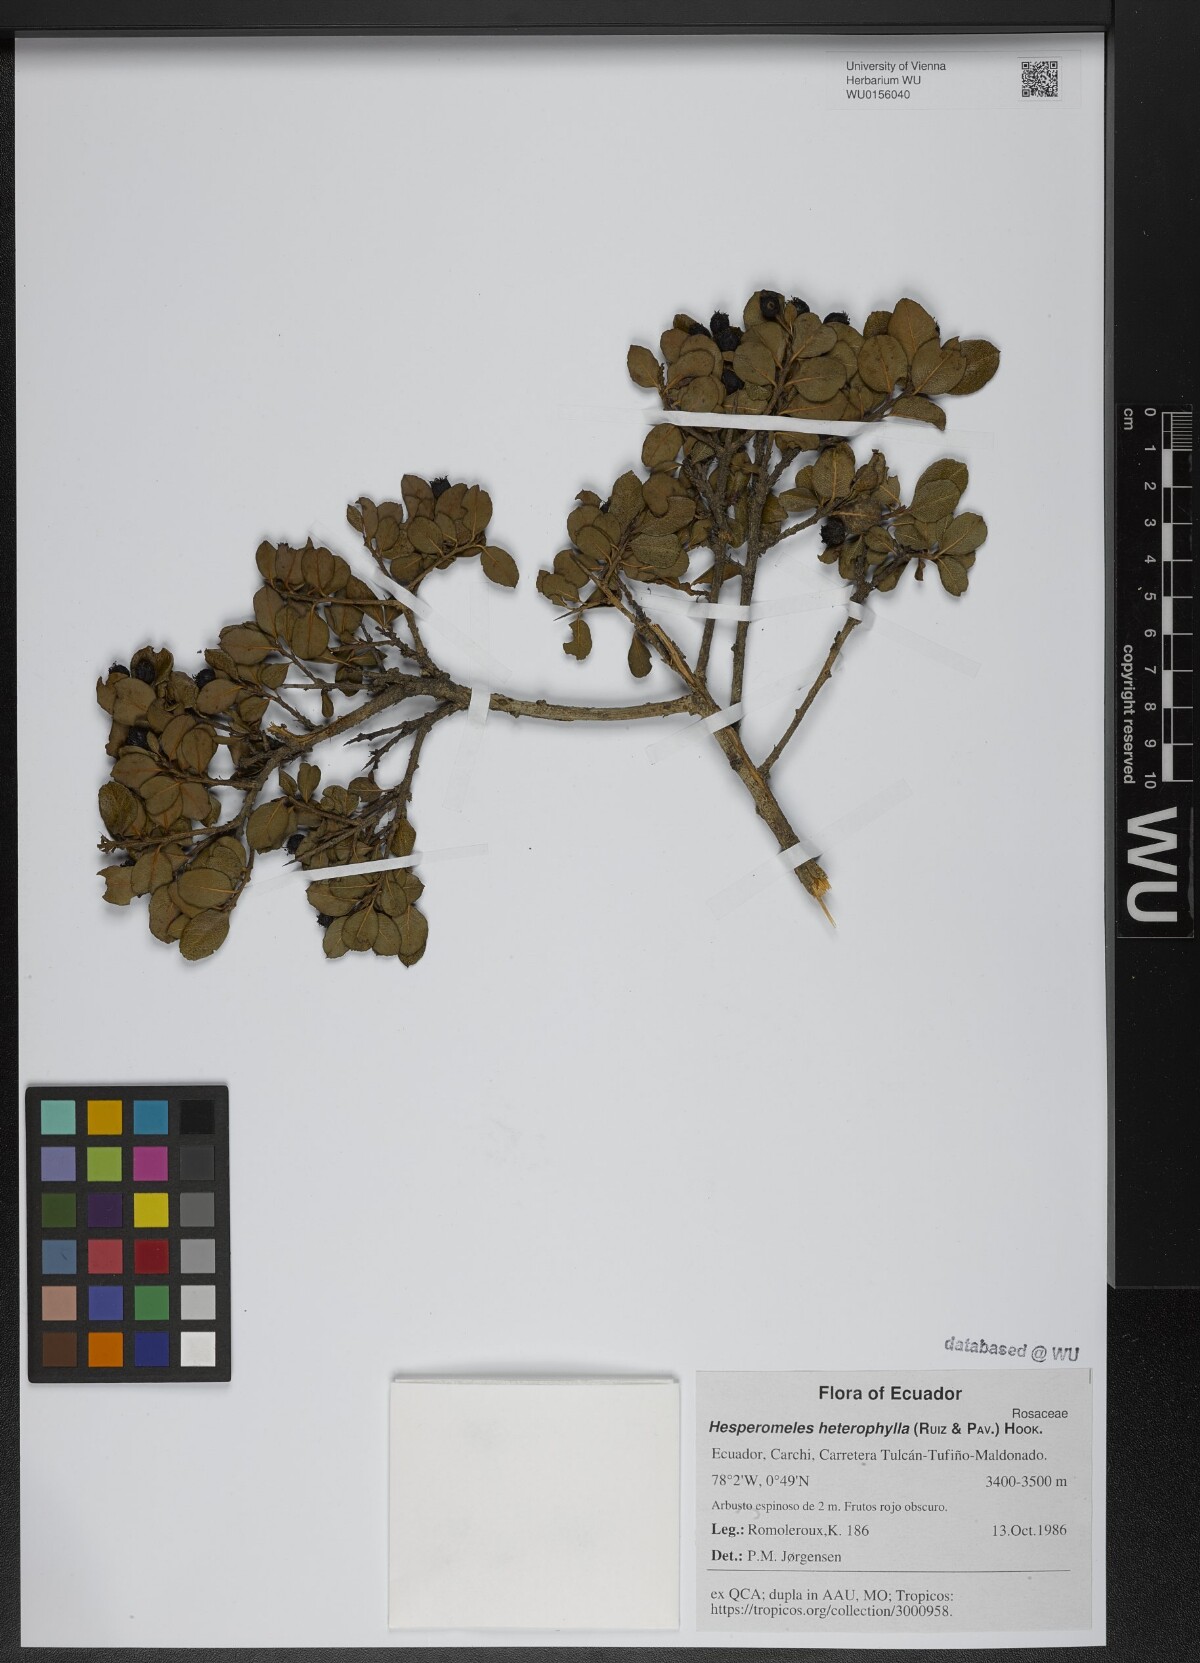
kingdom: Plantae
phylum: Tracheophyta
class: Magnoliopsida
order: Rosales
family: Rosaceae
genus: Hesperomeles
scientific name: Hesperomeles obtusifolia
